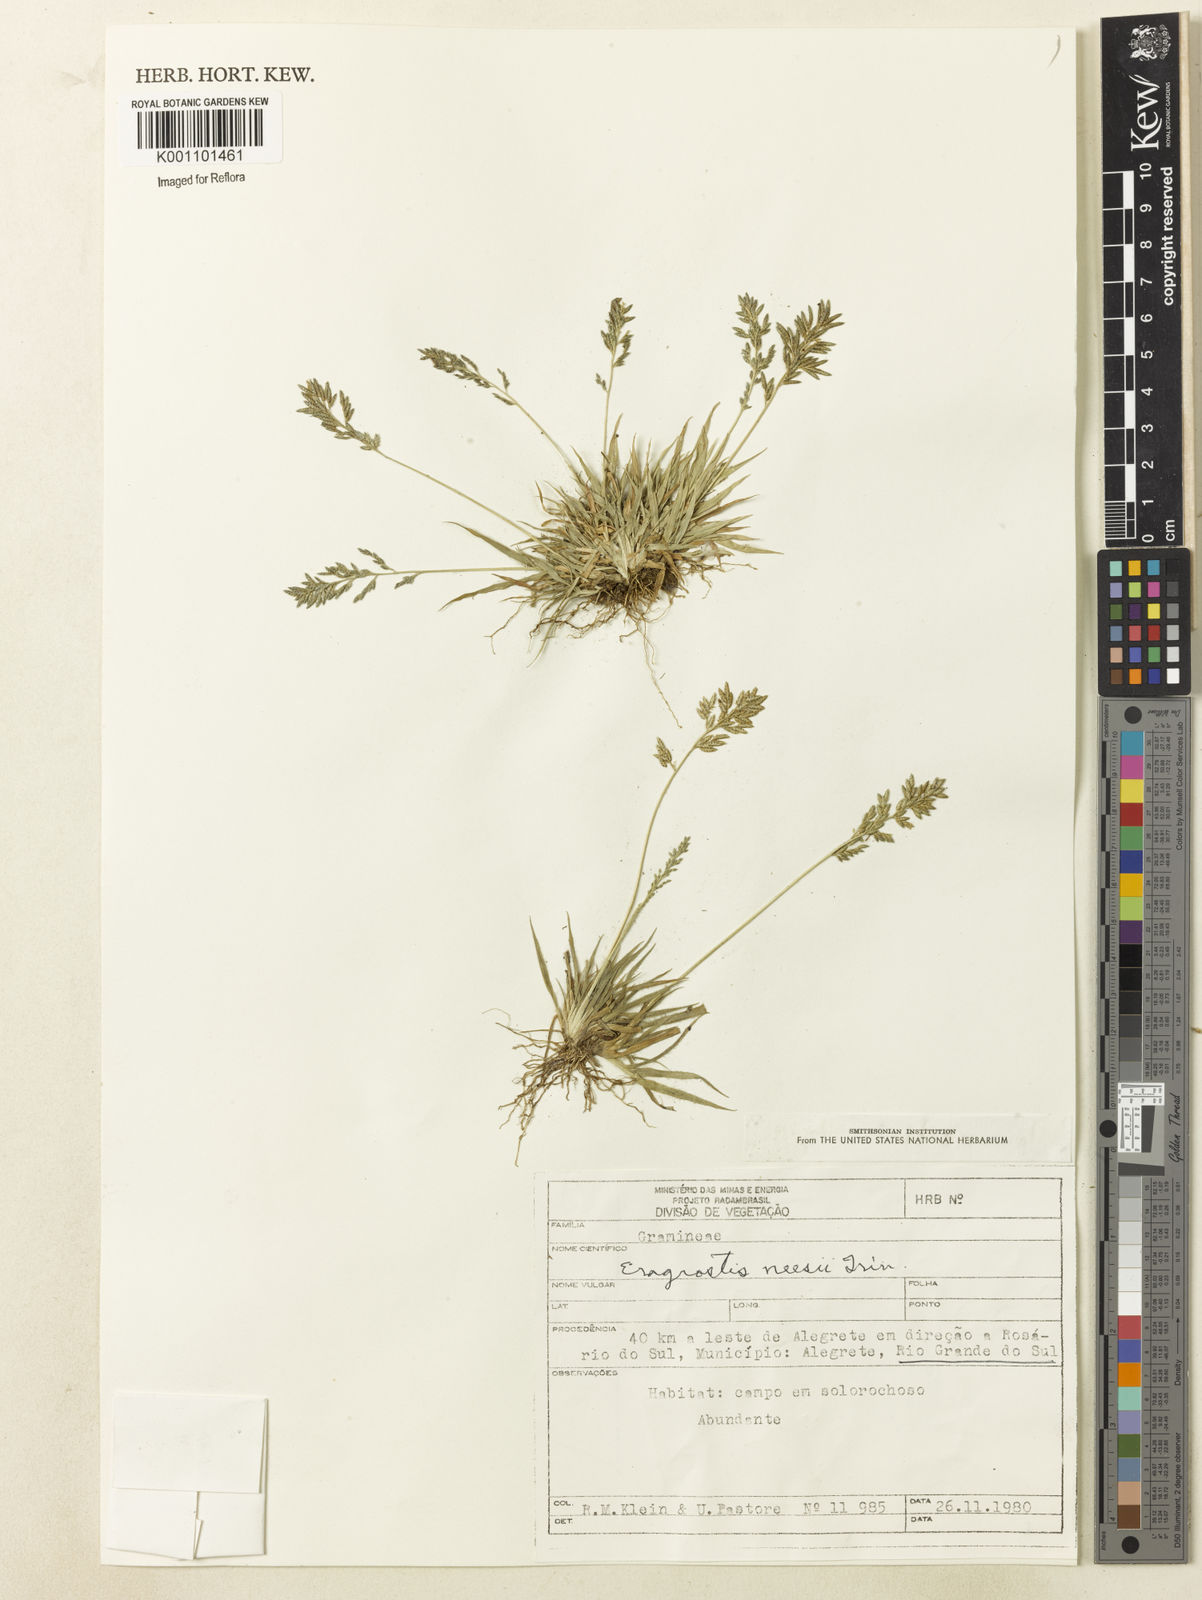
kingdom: Plantae
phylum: Tracheophyta
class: Liliopsida
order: Poales
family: Poaceae
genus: Eragrostis
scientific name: Eragrostis neesii
